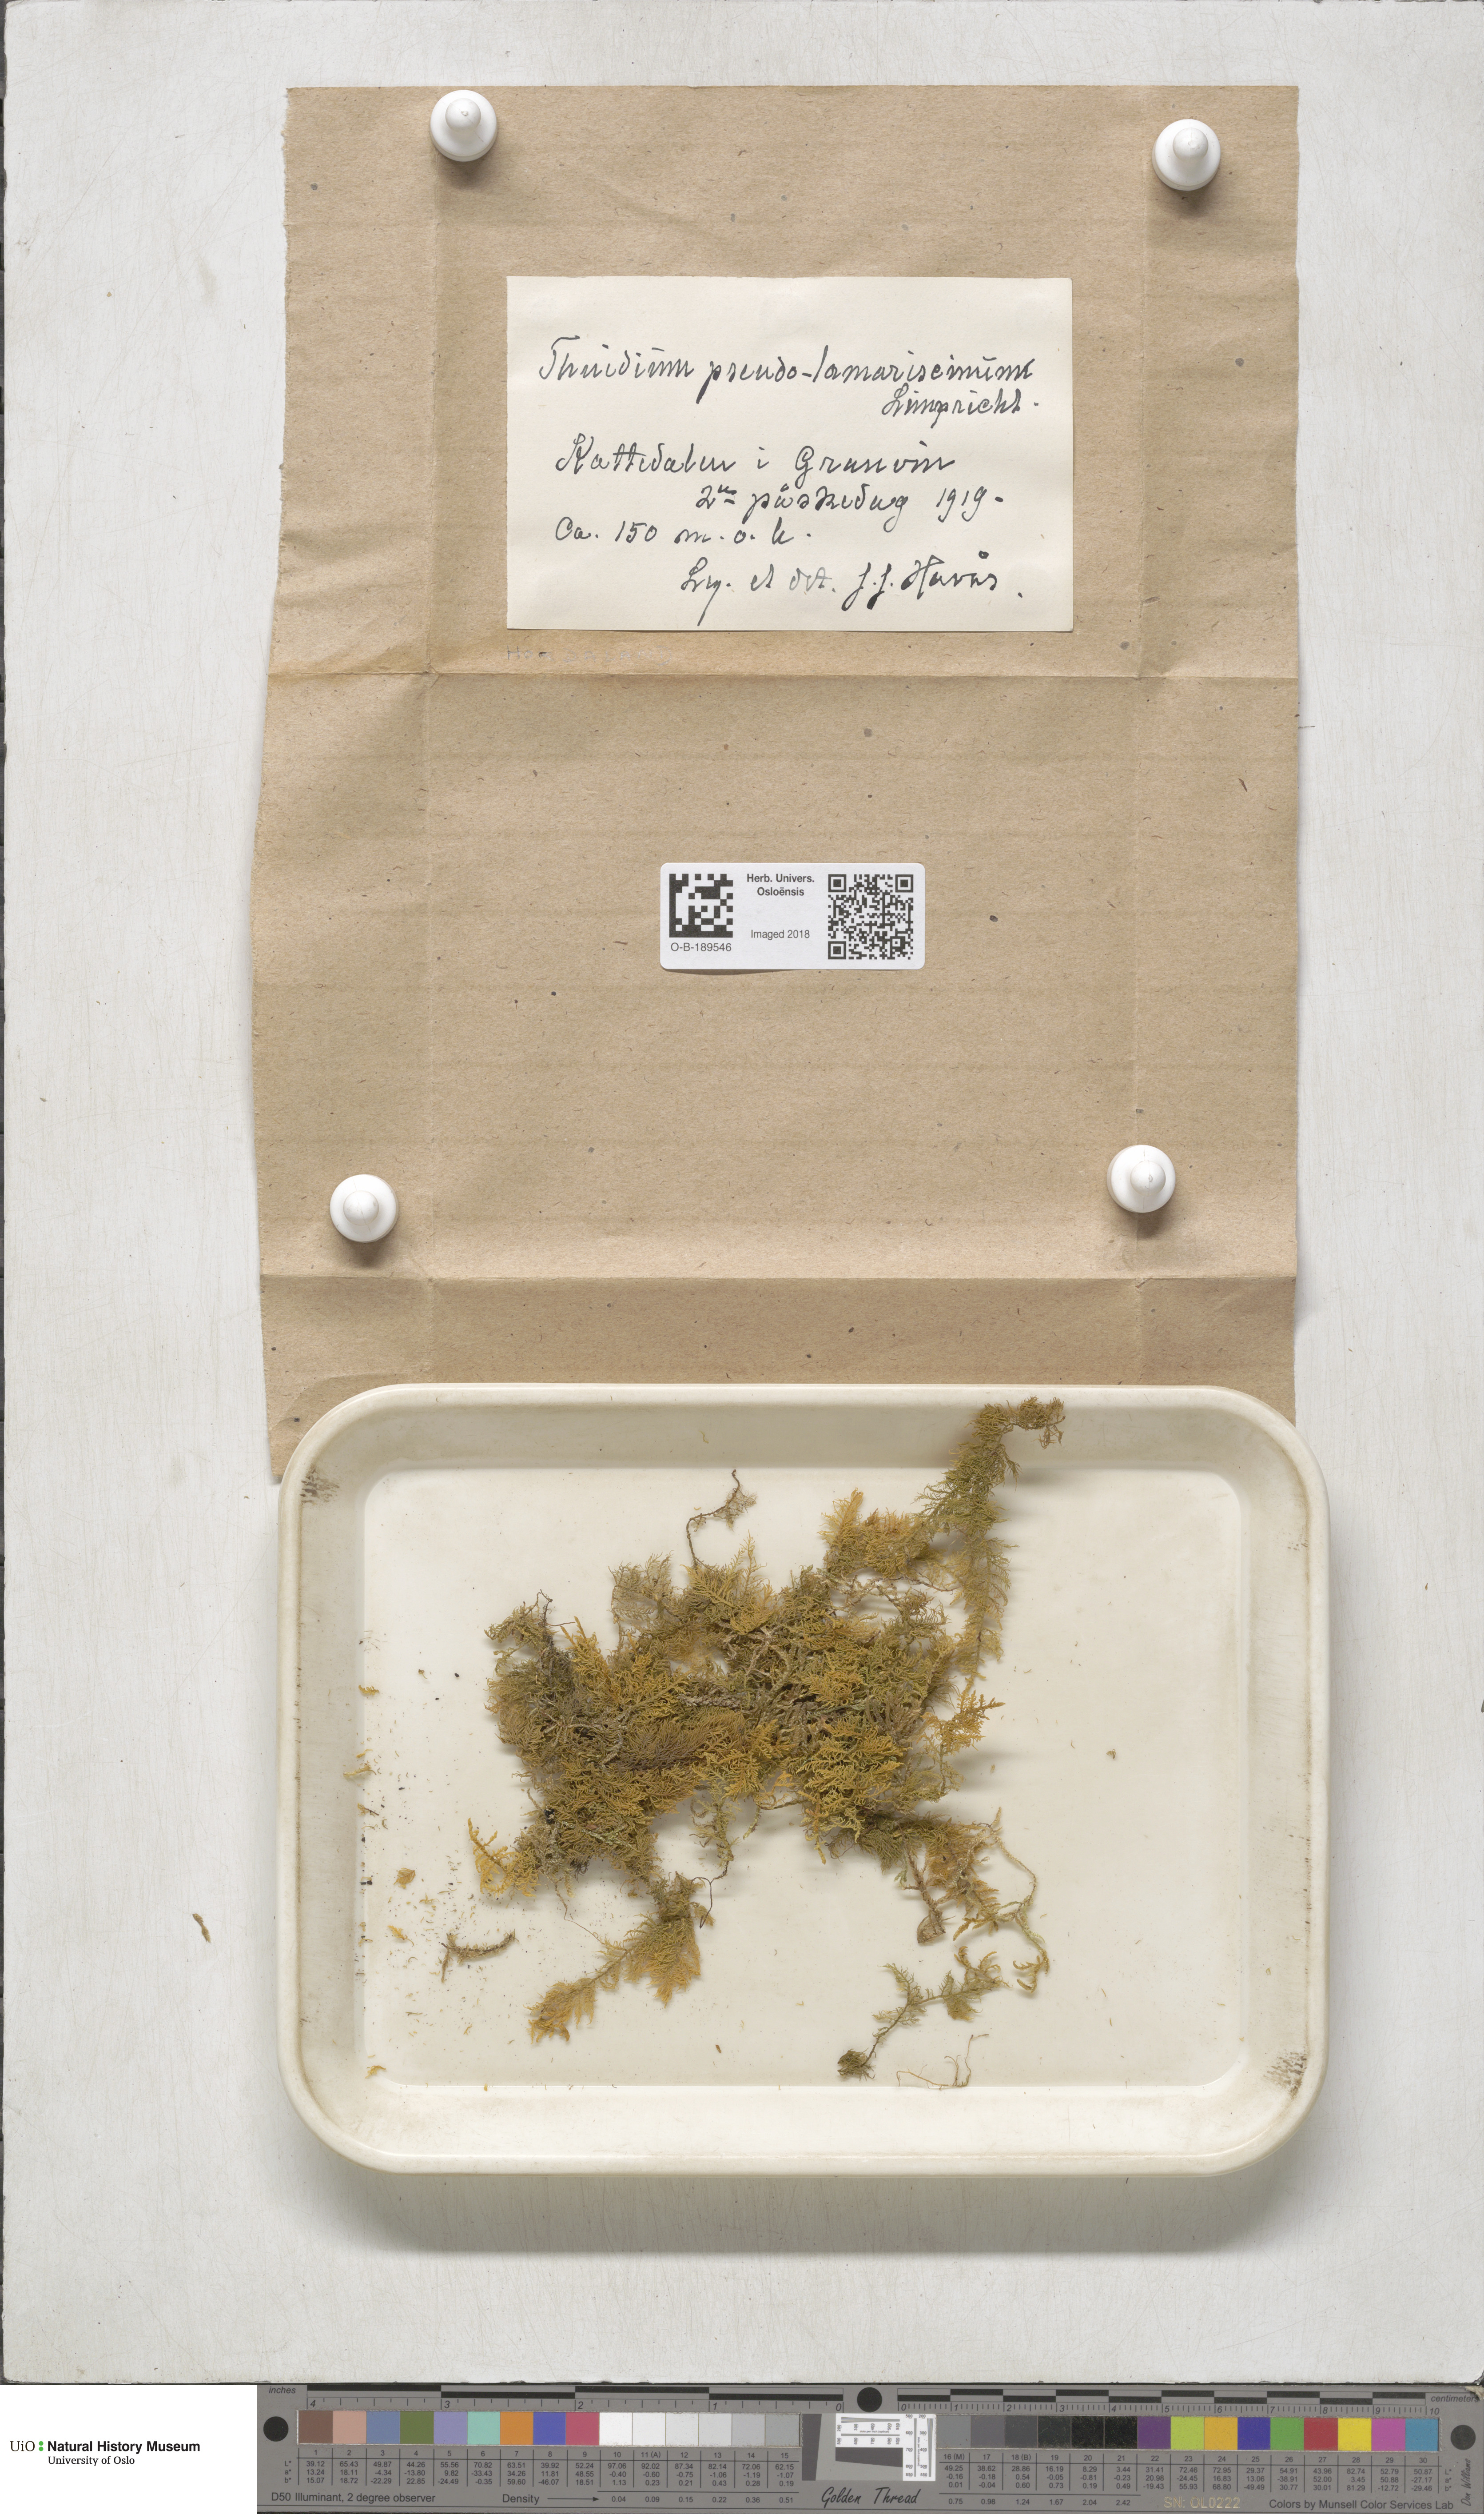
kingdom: Plantae
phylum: Bryophyta
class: Bryopsida
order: Hypnales
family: Thuidiaceae
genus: Thuidium
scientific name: Thuidium assimile
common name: Philibert's fern moss
